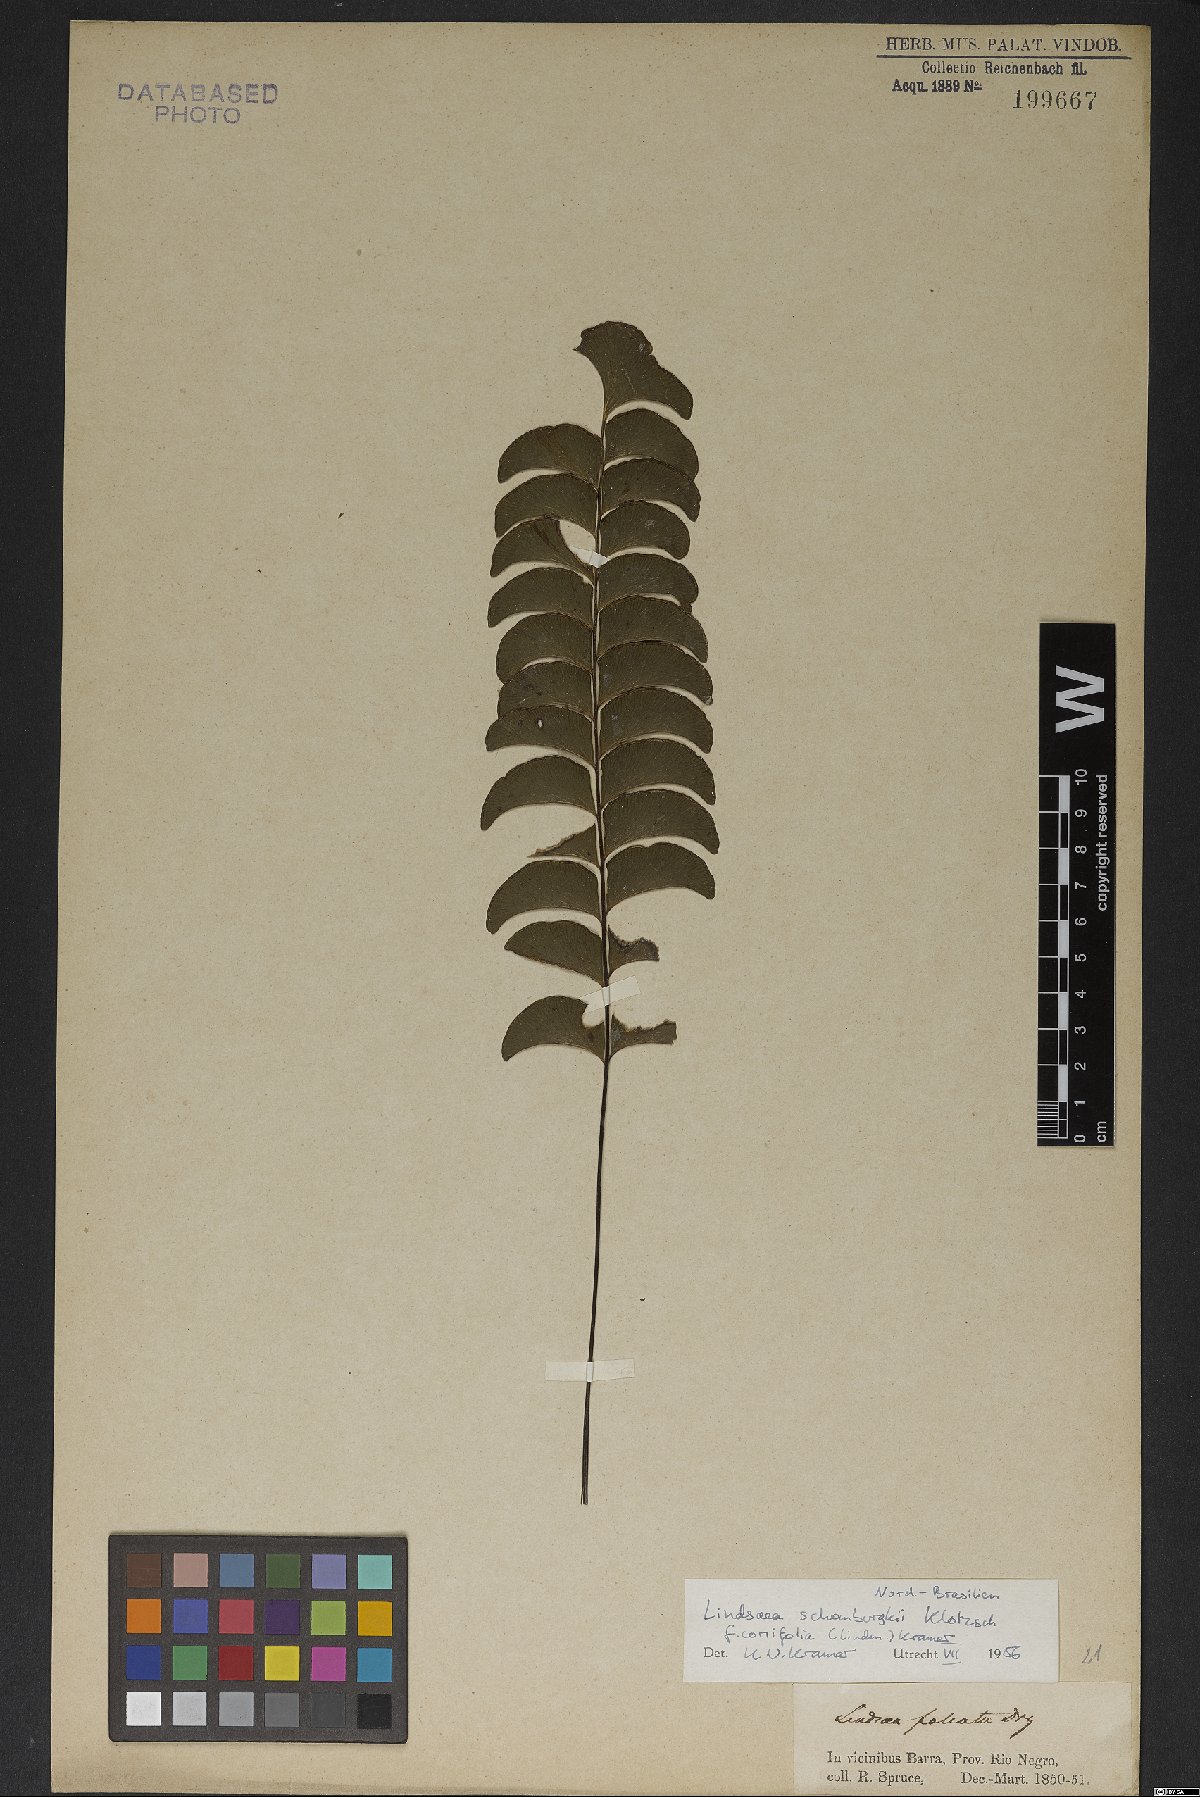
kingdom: Plantae
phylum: Tracheophyta
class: Polypodiopsida
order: Polypodiales
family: Lindsaeaceae
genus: Lindsaea
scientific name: Lindsaea schomburgkii
